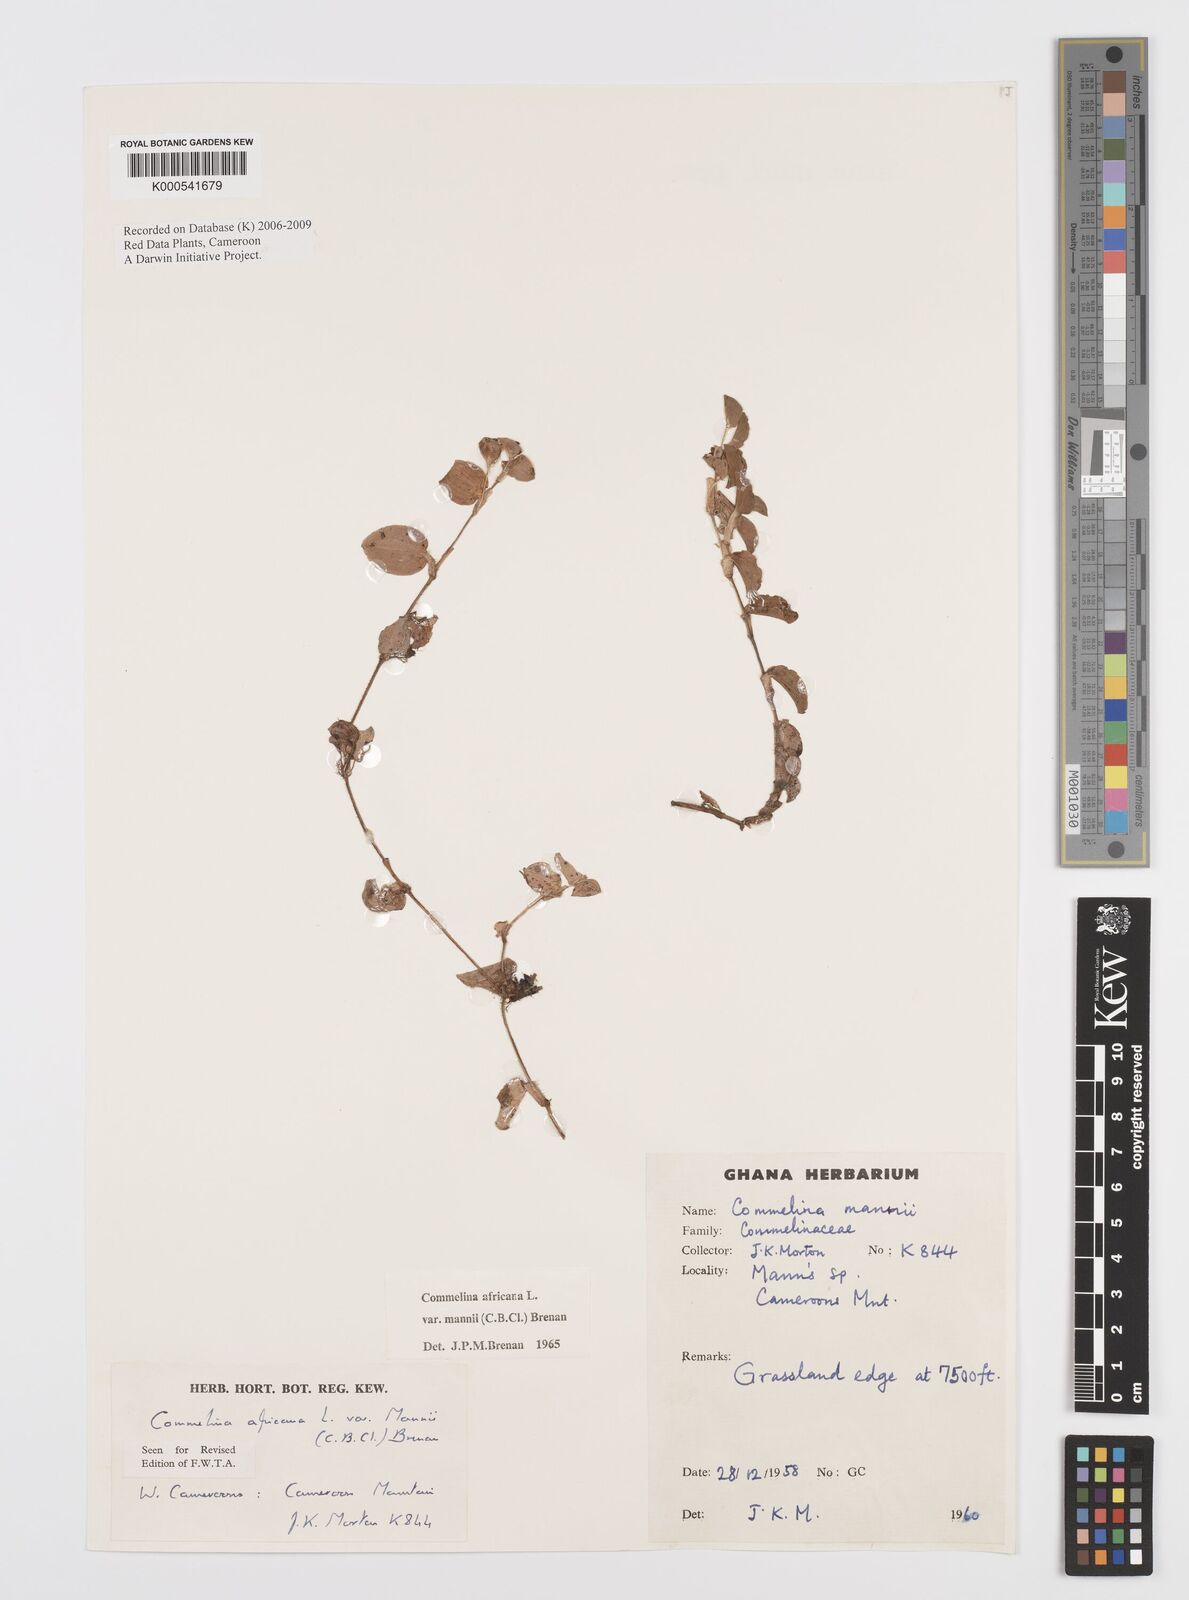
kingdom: Plantae
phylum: Tracheophyta
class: Liliopsida
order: Commelinales
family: Commelinaceae
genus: Commelina
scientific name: Commelina africana
